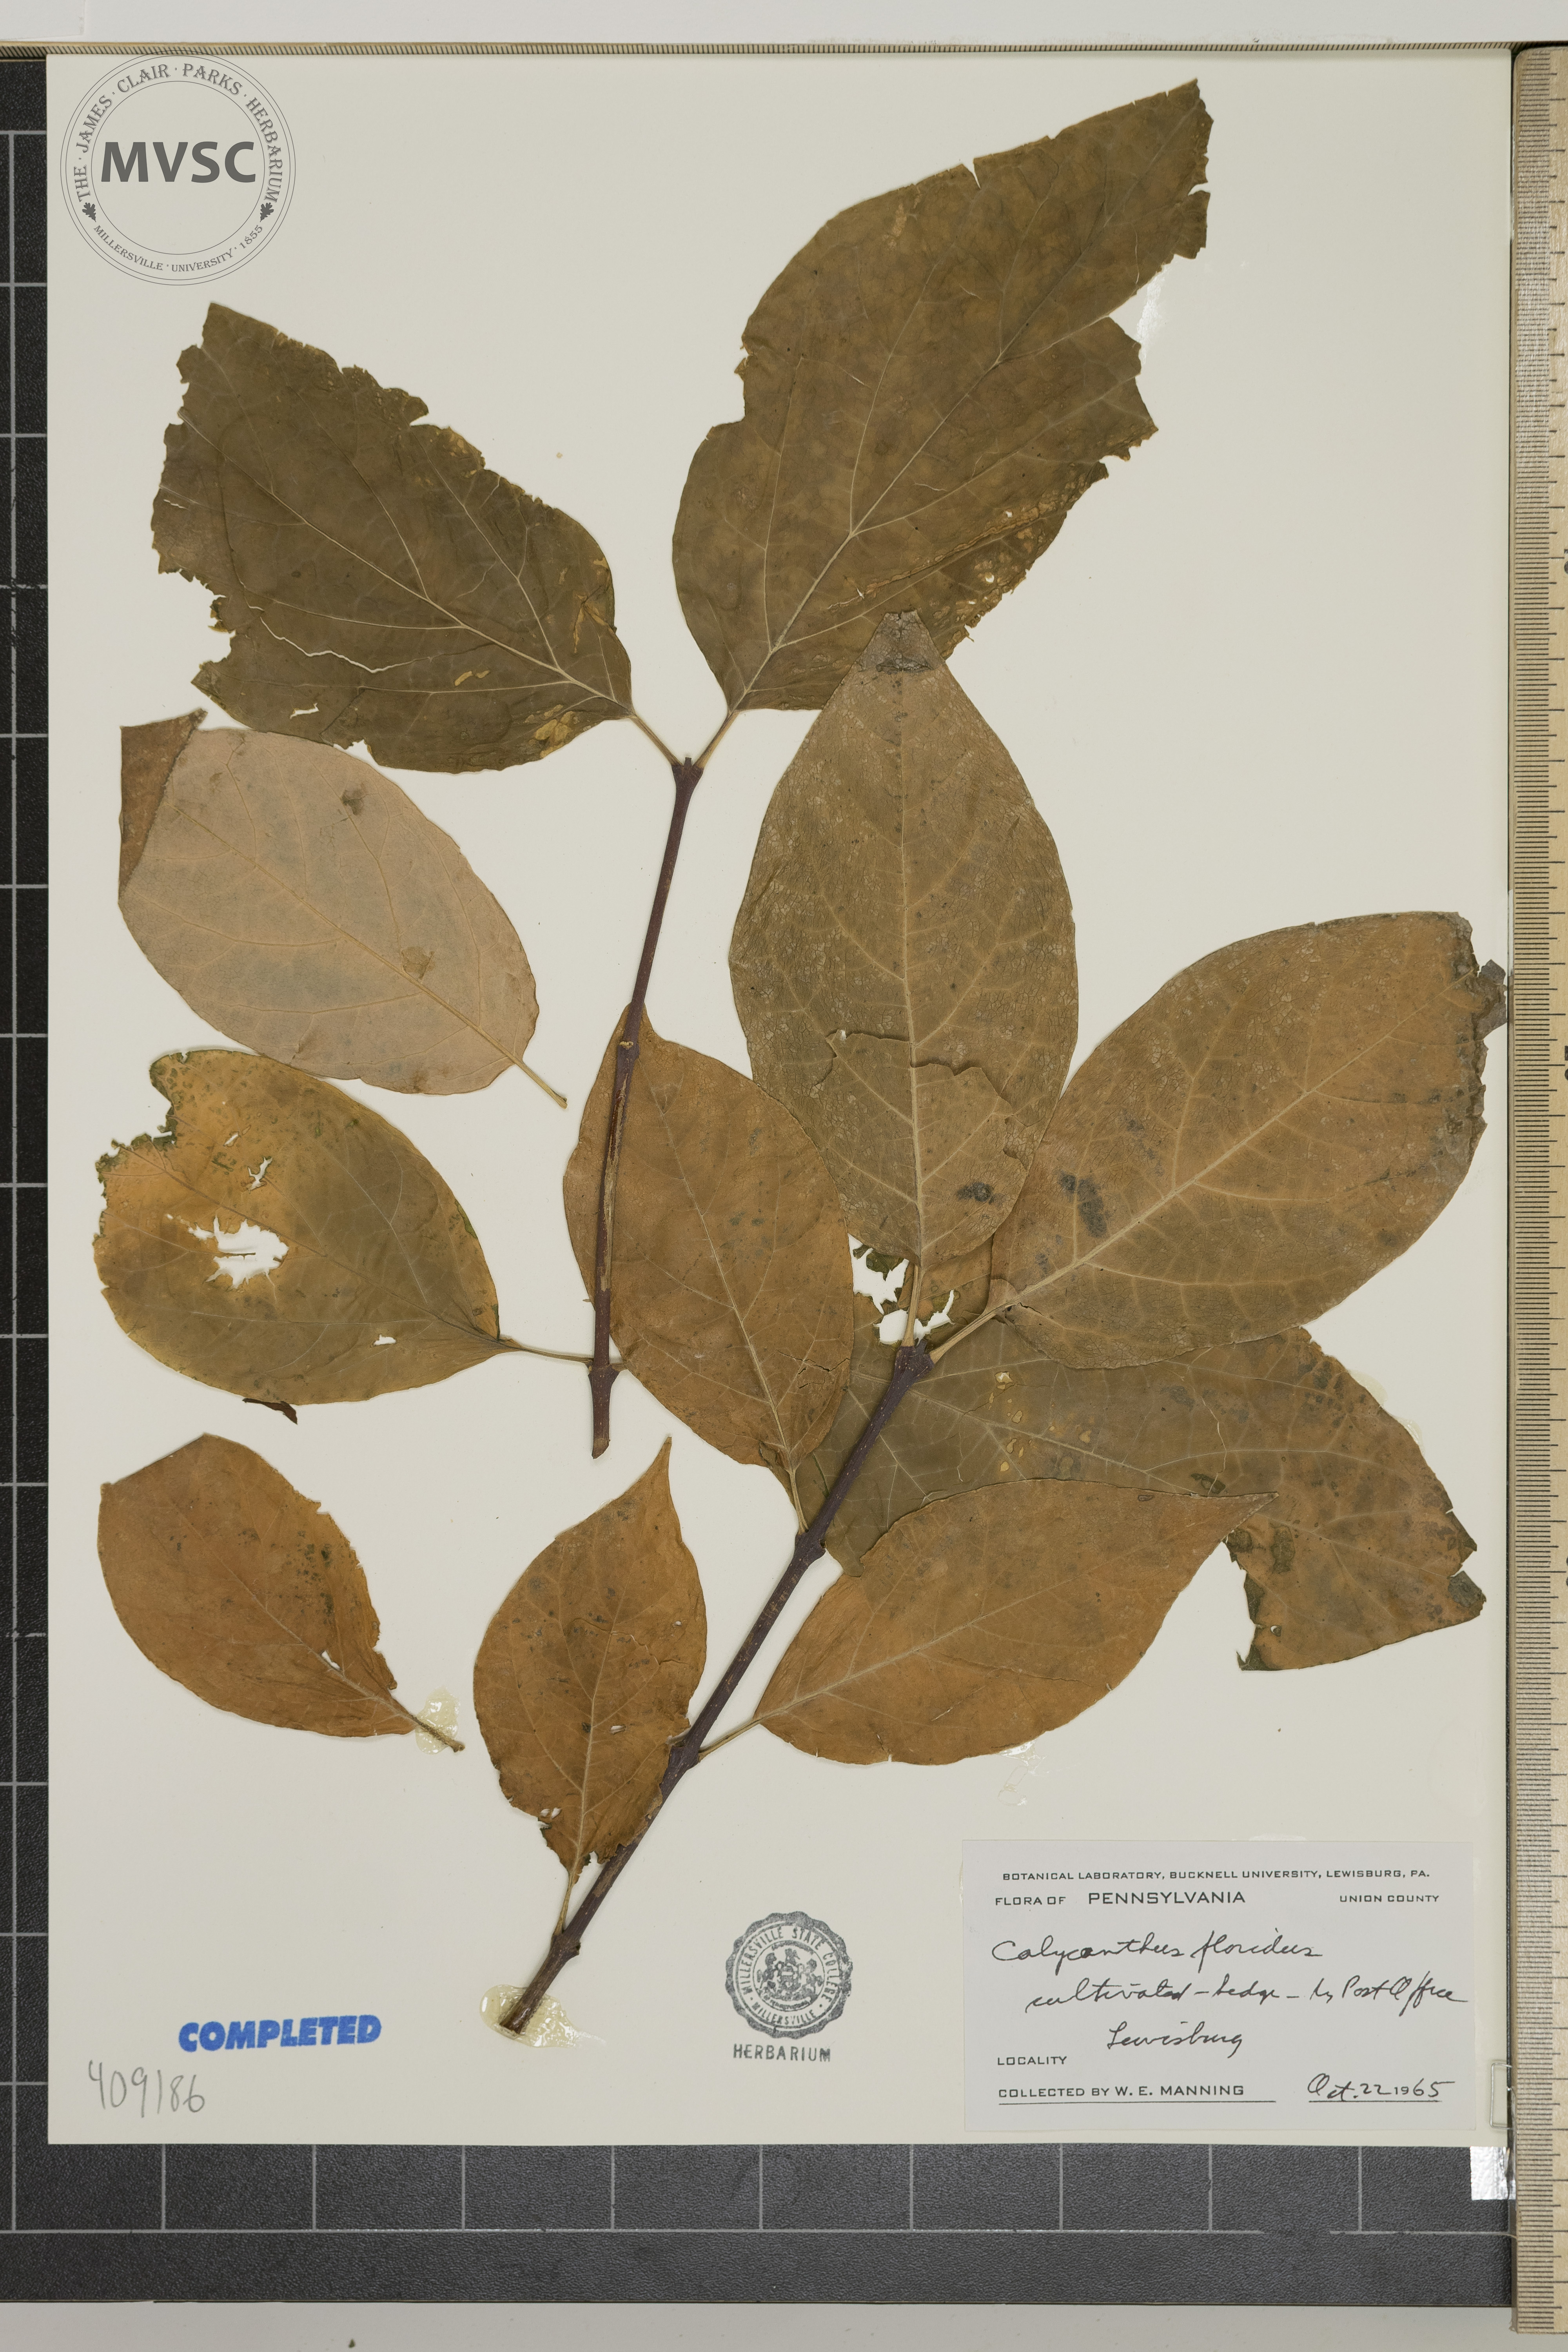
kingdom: Plantae
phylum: Tracheophyta
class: Magnoliopsida
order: Laurales
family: Calycanthaceae
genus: Calycanthus
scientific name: Calycanthus floridus
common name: Carolina-allspice
